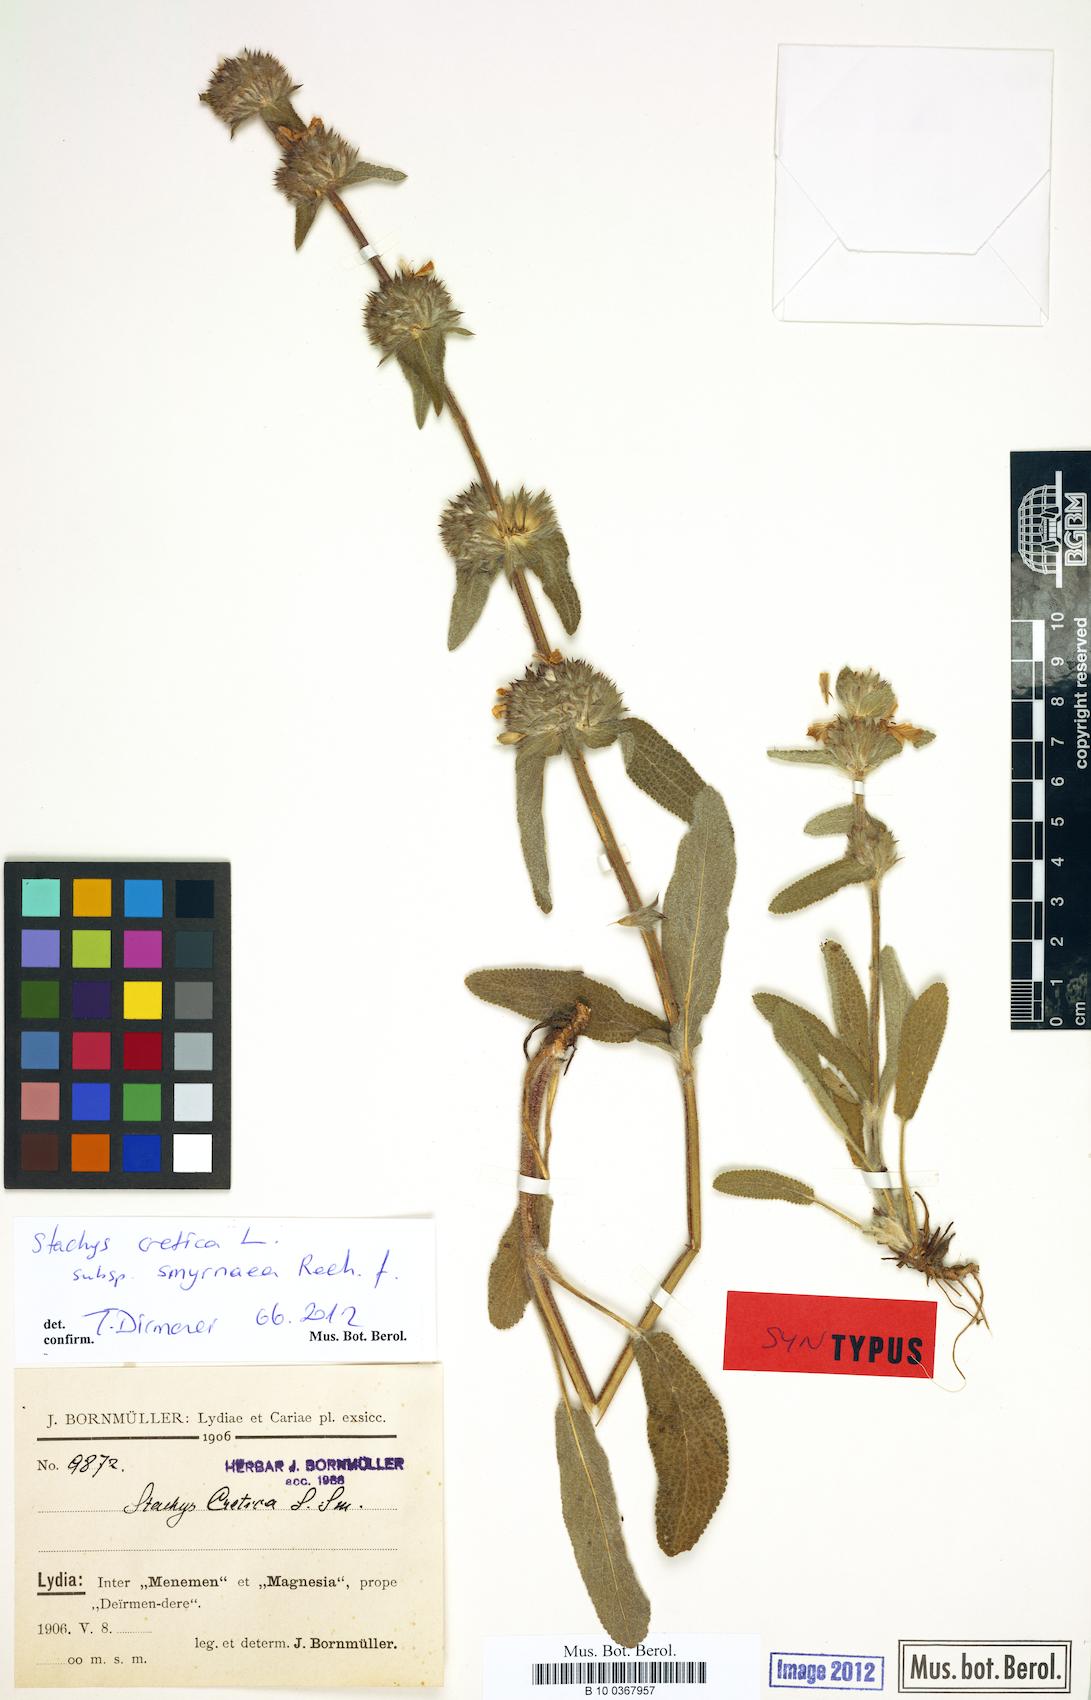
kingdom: Plantae
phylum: Tracheophyta
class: Magnoliopsida
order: Lamiales
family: Lamiaceae
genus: Stachys
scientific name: Stachys cretica
